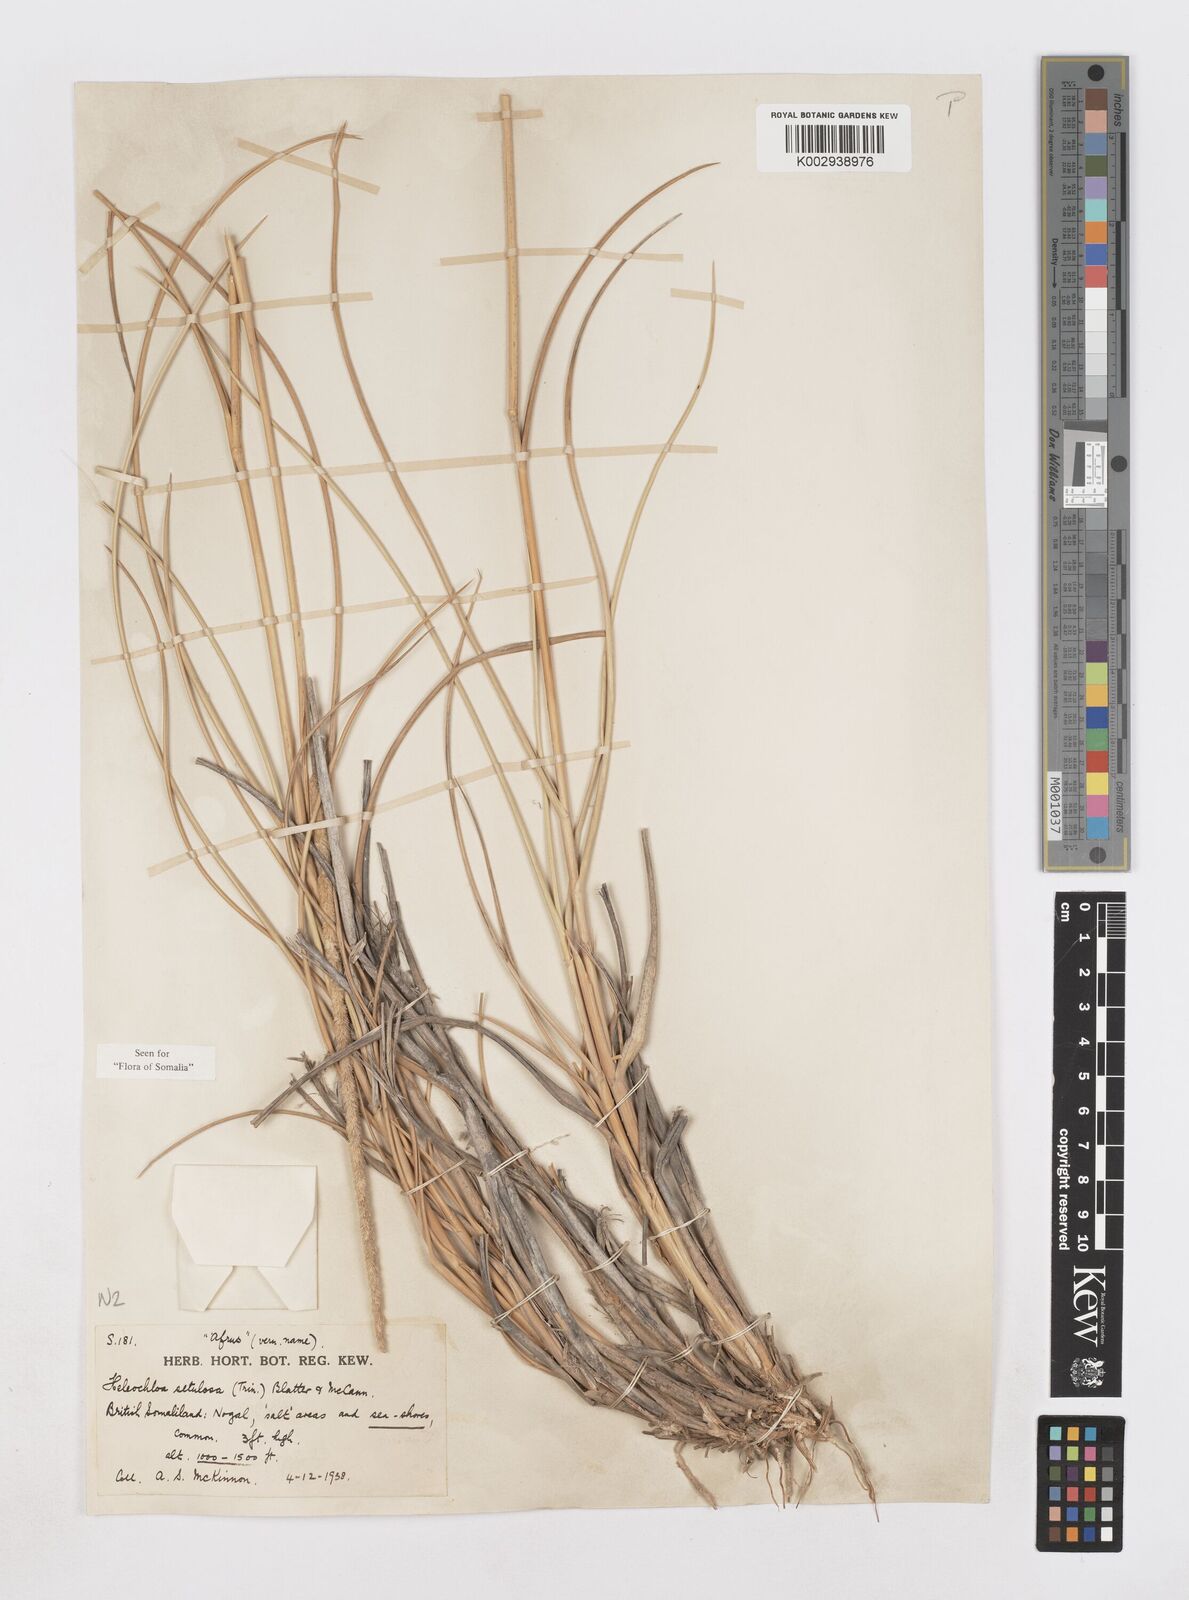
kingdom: Plantae
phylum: Tracheophyta
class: Liliopsida
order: Poales
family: Poaceae
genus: Urochondra
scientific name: Urochondra setulosa
